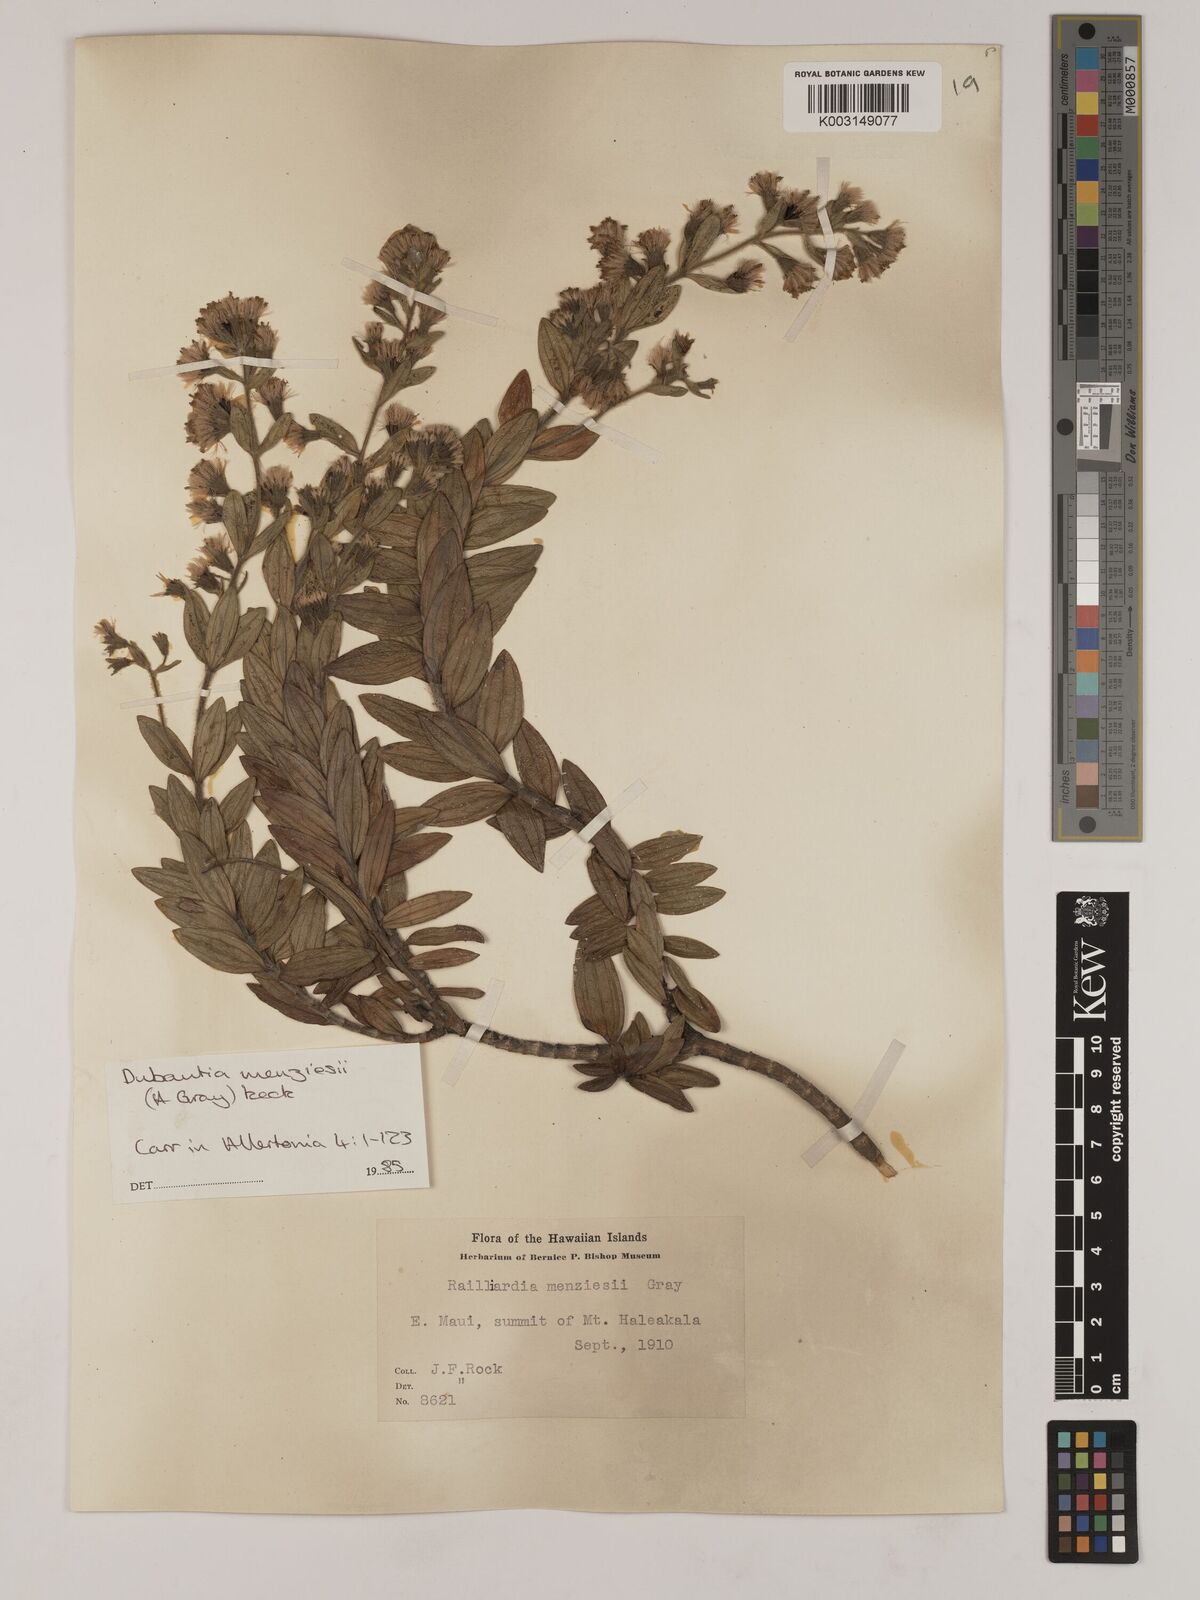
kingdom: Plantae
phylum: Tracheophyta
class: Magnoliopsida
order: Asterales
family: Asteraceae
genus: Dubautia
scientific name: Dubautia menziesii
